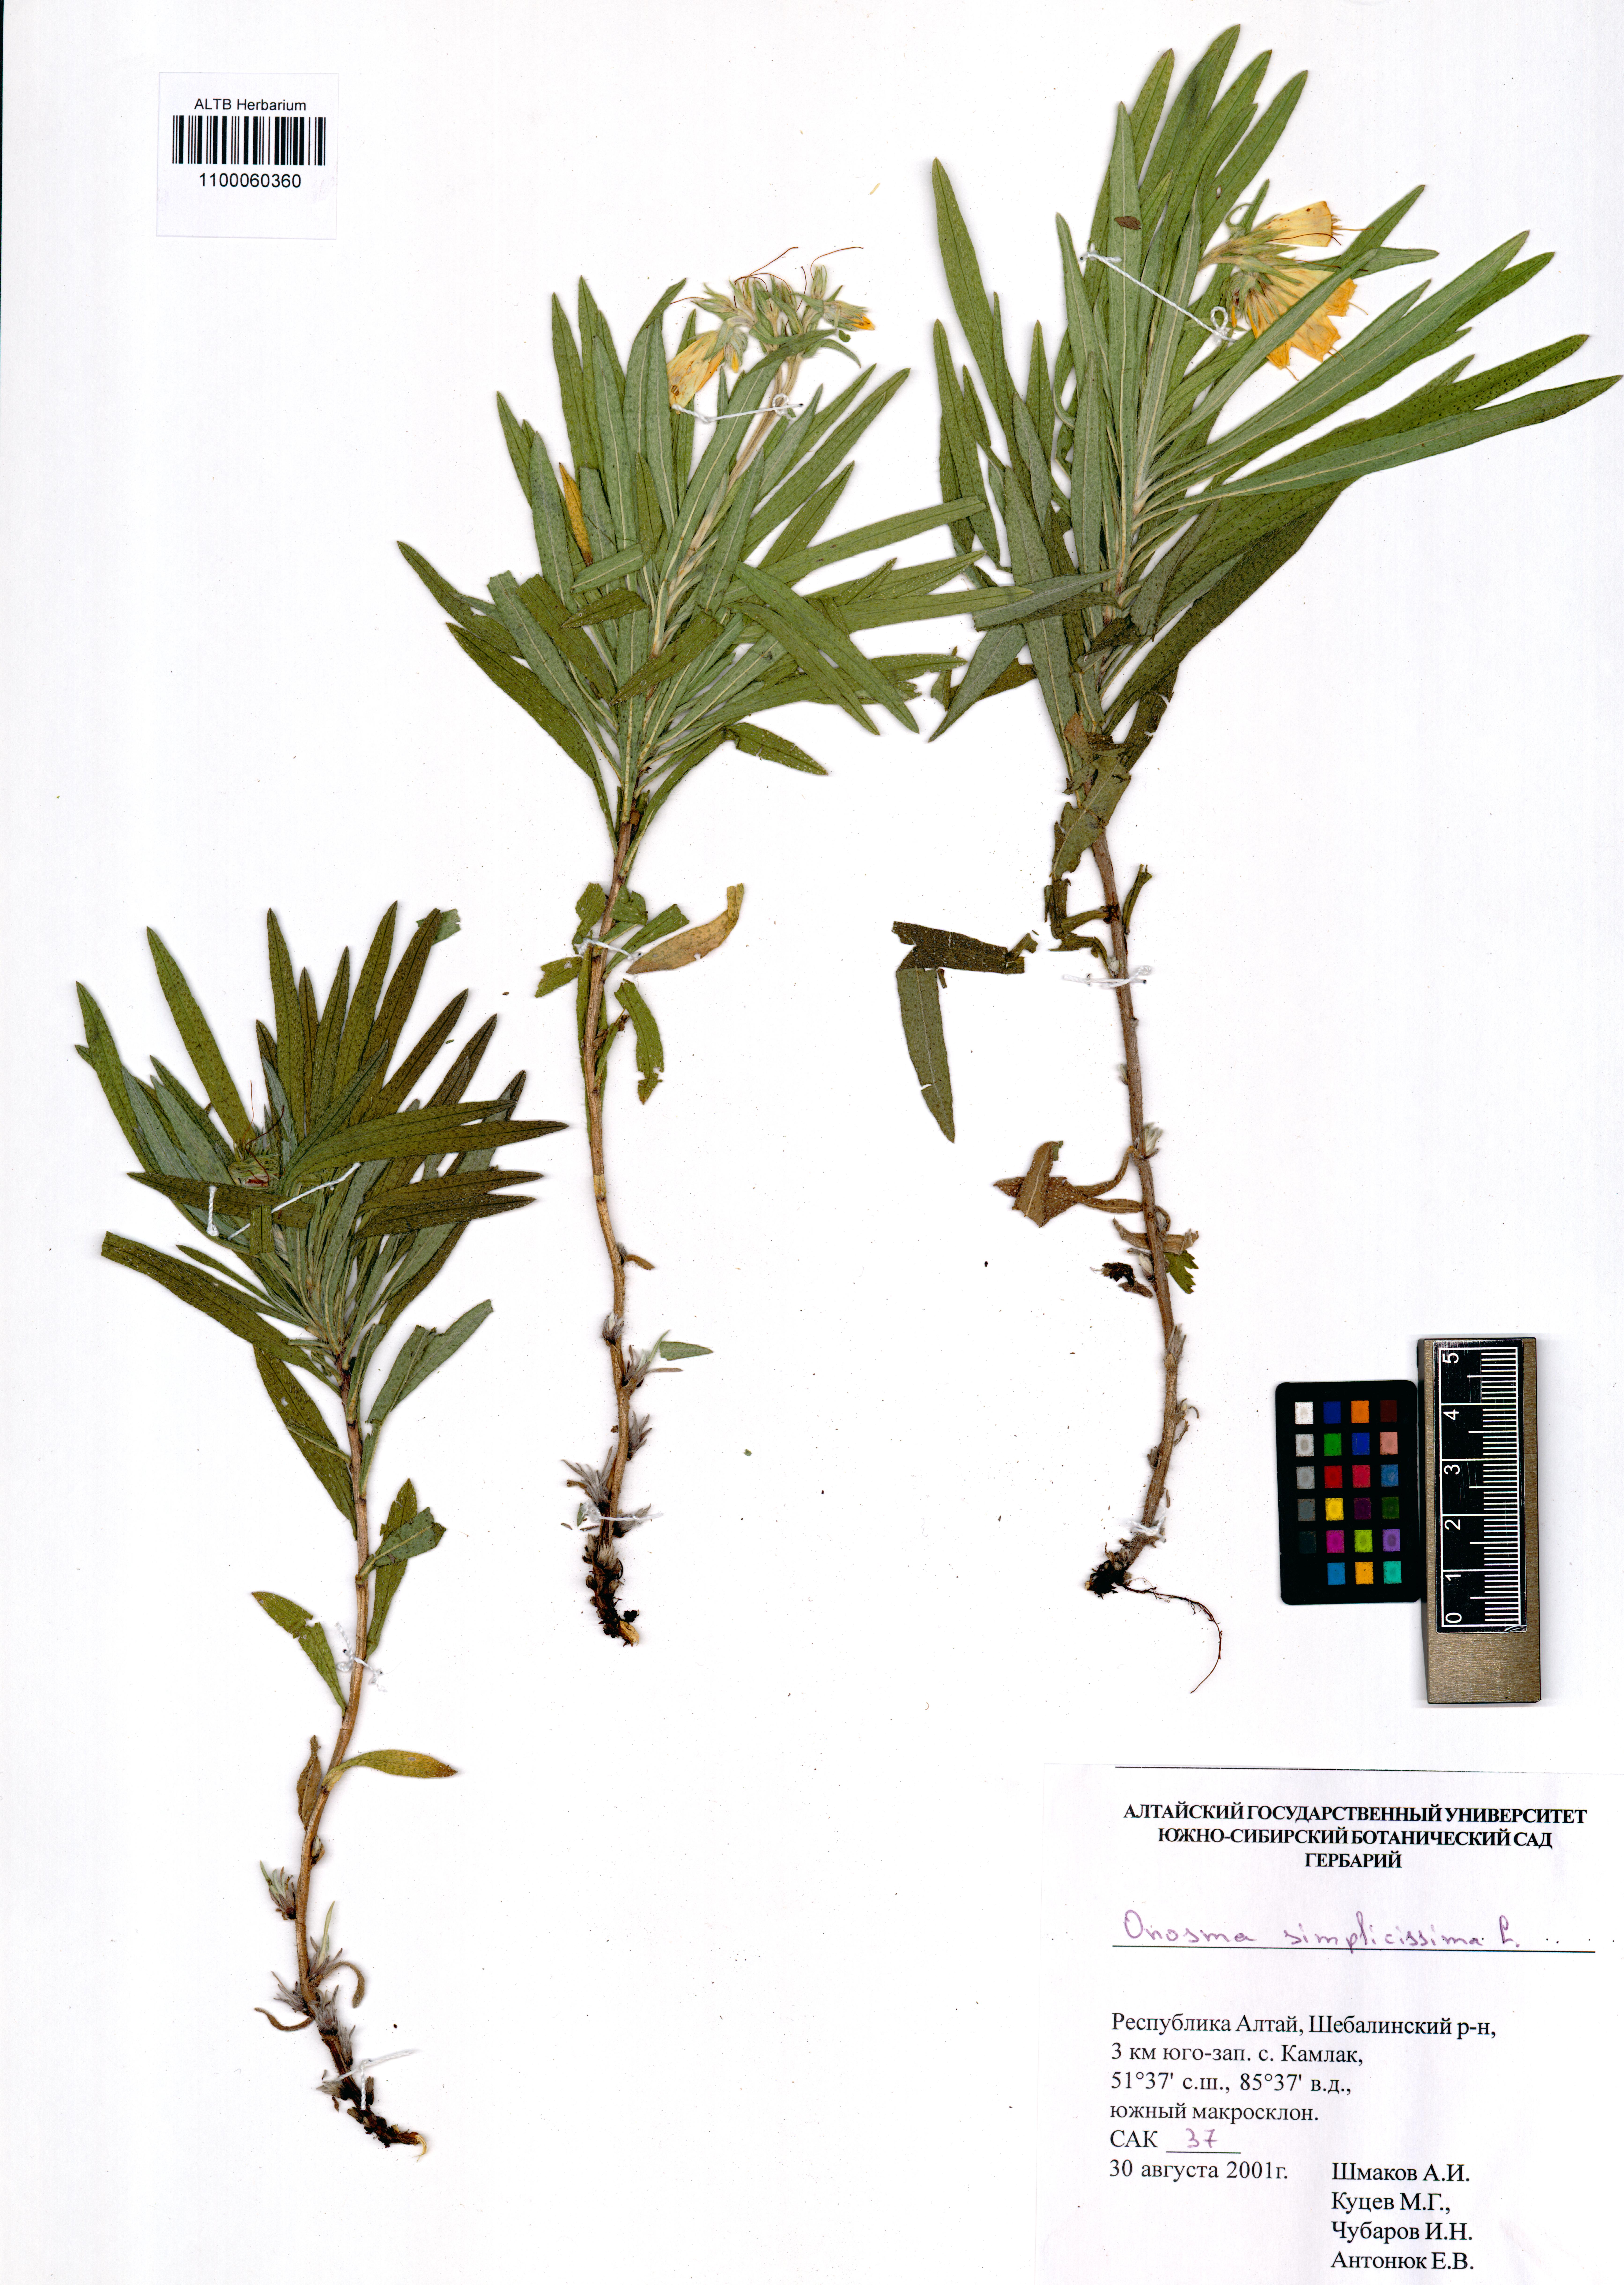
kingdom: Plantae
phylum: Tracheophyta
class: Magnoliopsida
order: Boraginales
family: Boraginaceae
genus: Onosma
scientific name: Onosma simplicissima
